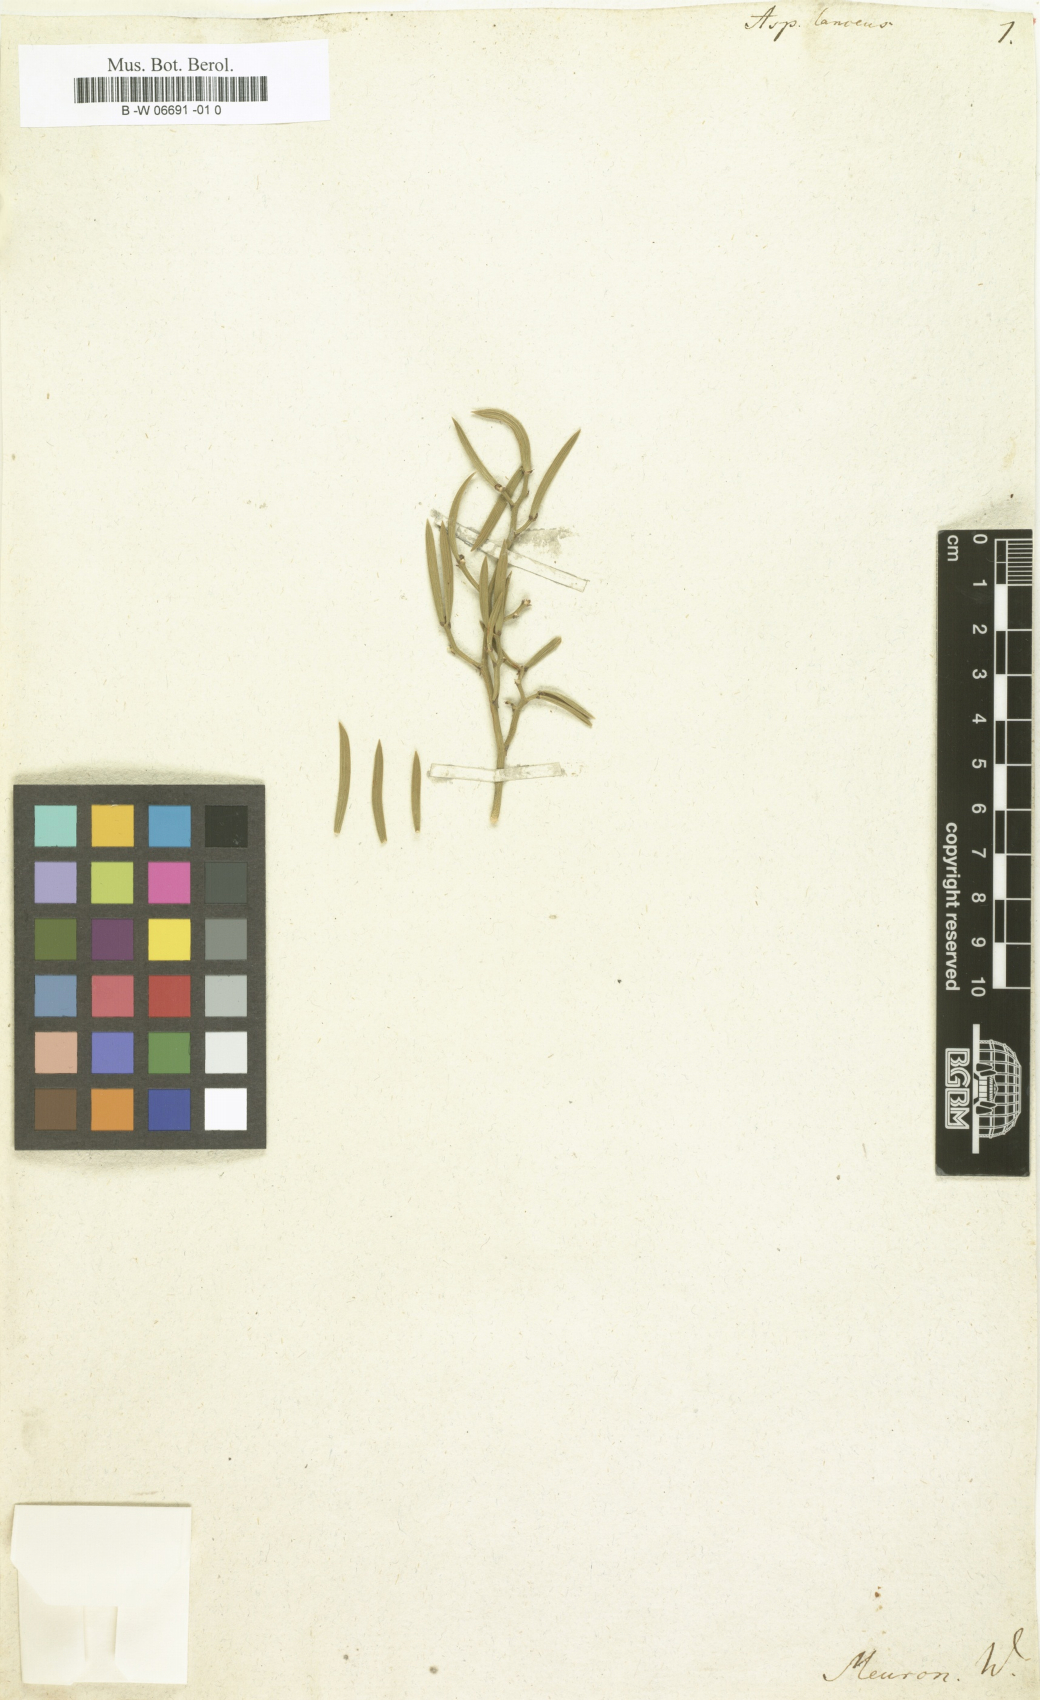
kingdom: Plantae
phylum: Tracheophyta
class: Liliopsida
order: Asparagales
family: Asparagaceae
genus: Asparagus
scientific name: Asparagus aethiopicus
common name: Sprenger's asparagus fern
